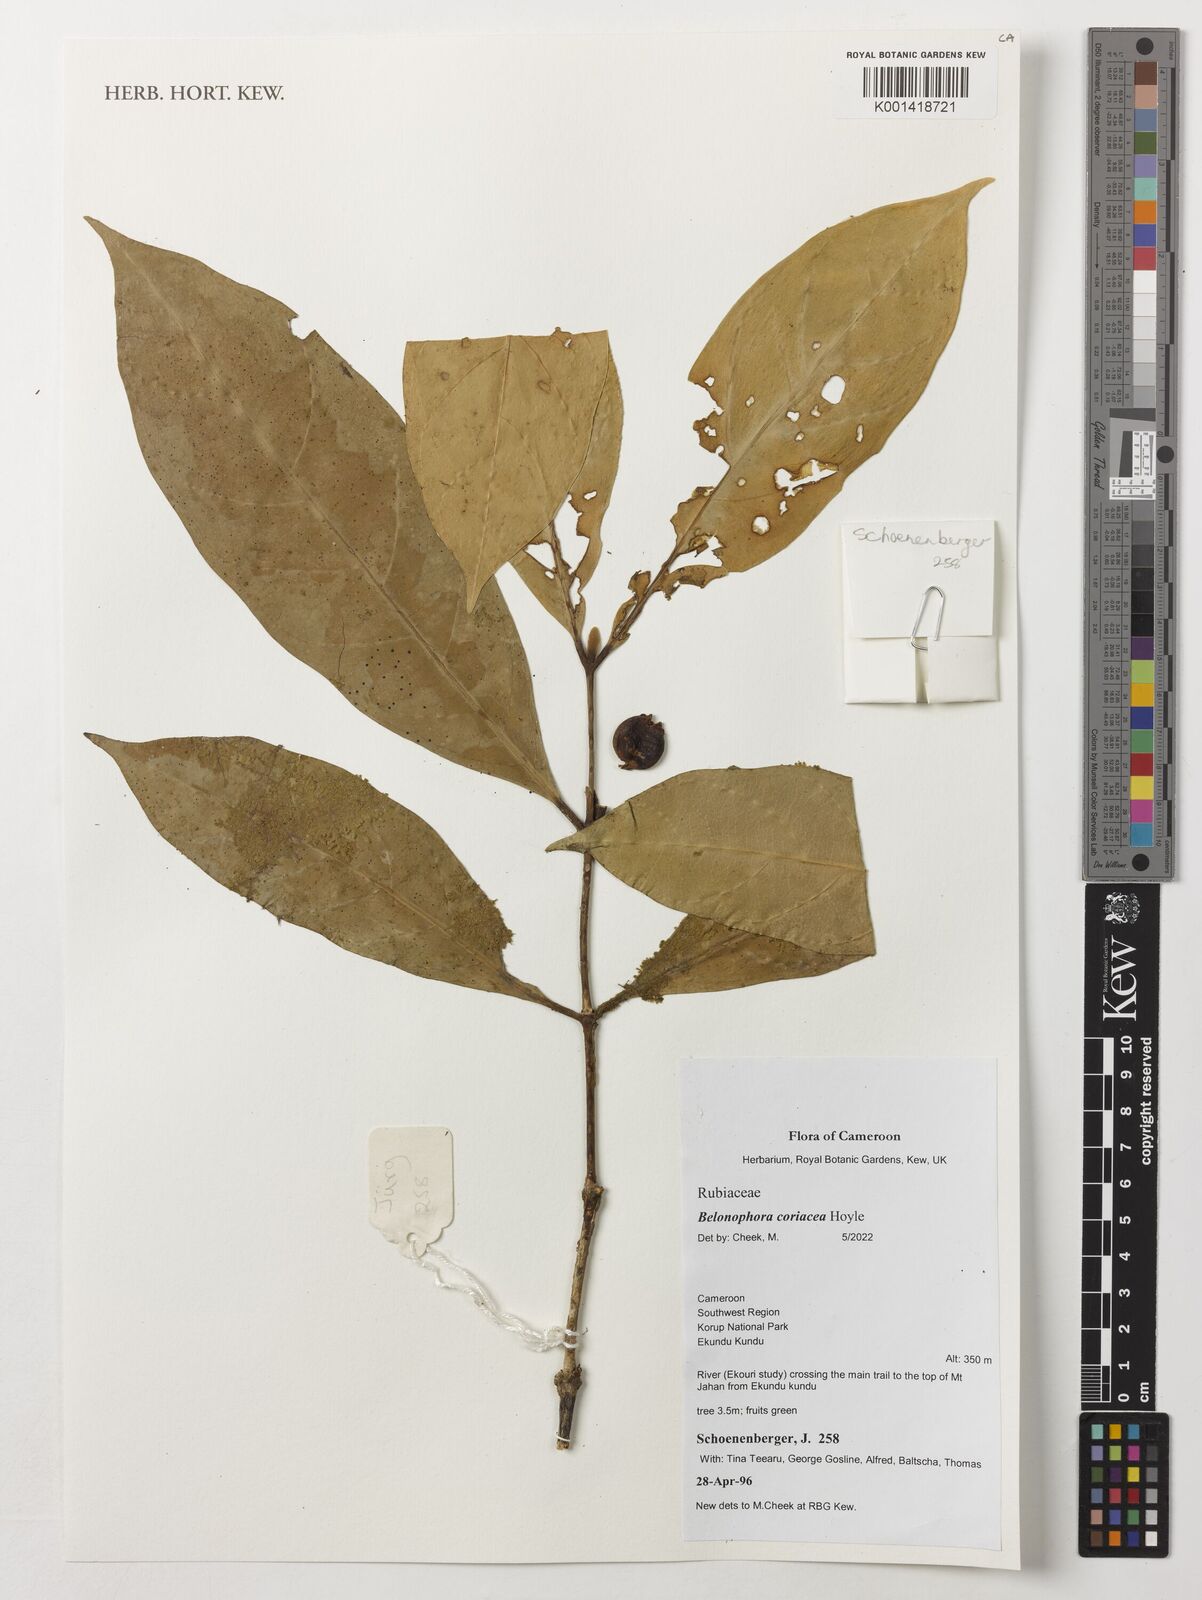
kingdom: Plantae
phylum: Tracheophyta
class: Magnoliopsida
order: Gentianales
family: Rubiaceae
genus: Belonophora
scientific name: Belonophora coriacea
